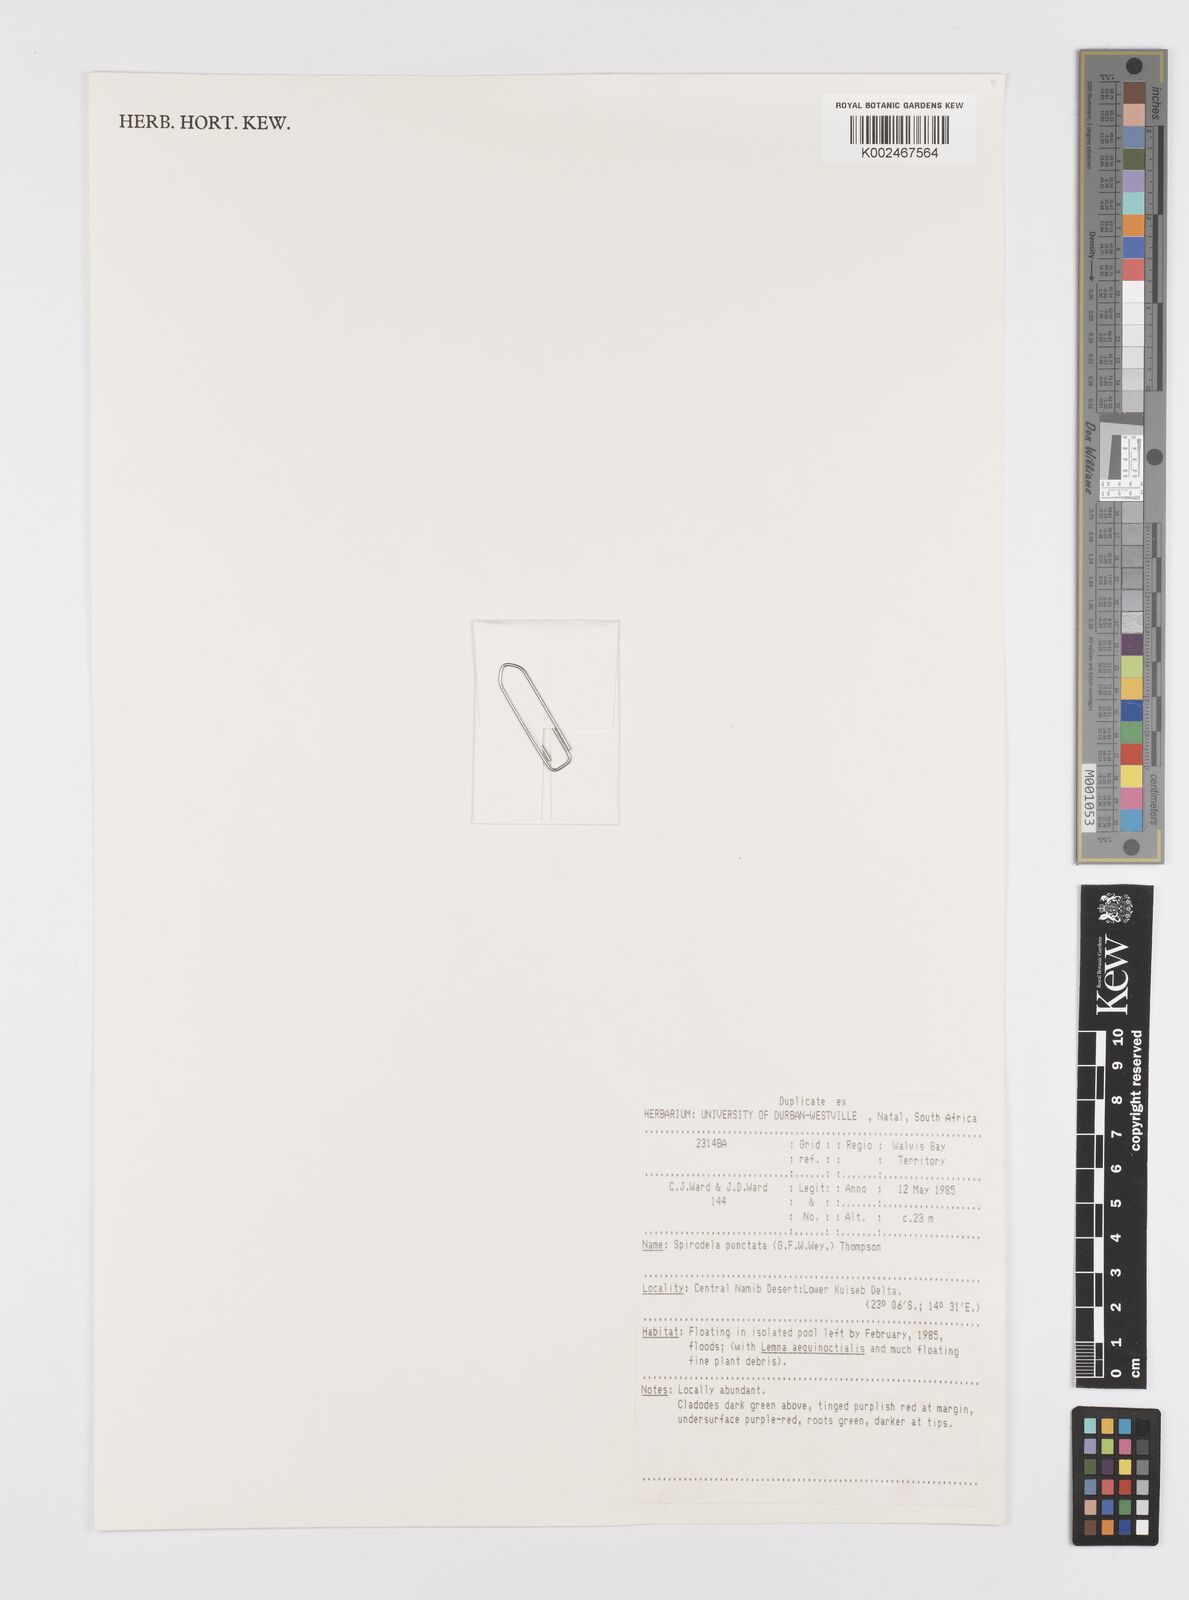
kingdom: Plantae
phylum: Tracheophyta
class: Liliopsida
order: Alismatales
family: Araceae
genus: Spirodela
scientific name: Spirodela punctata
